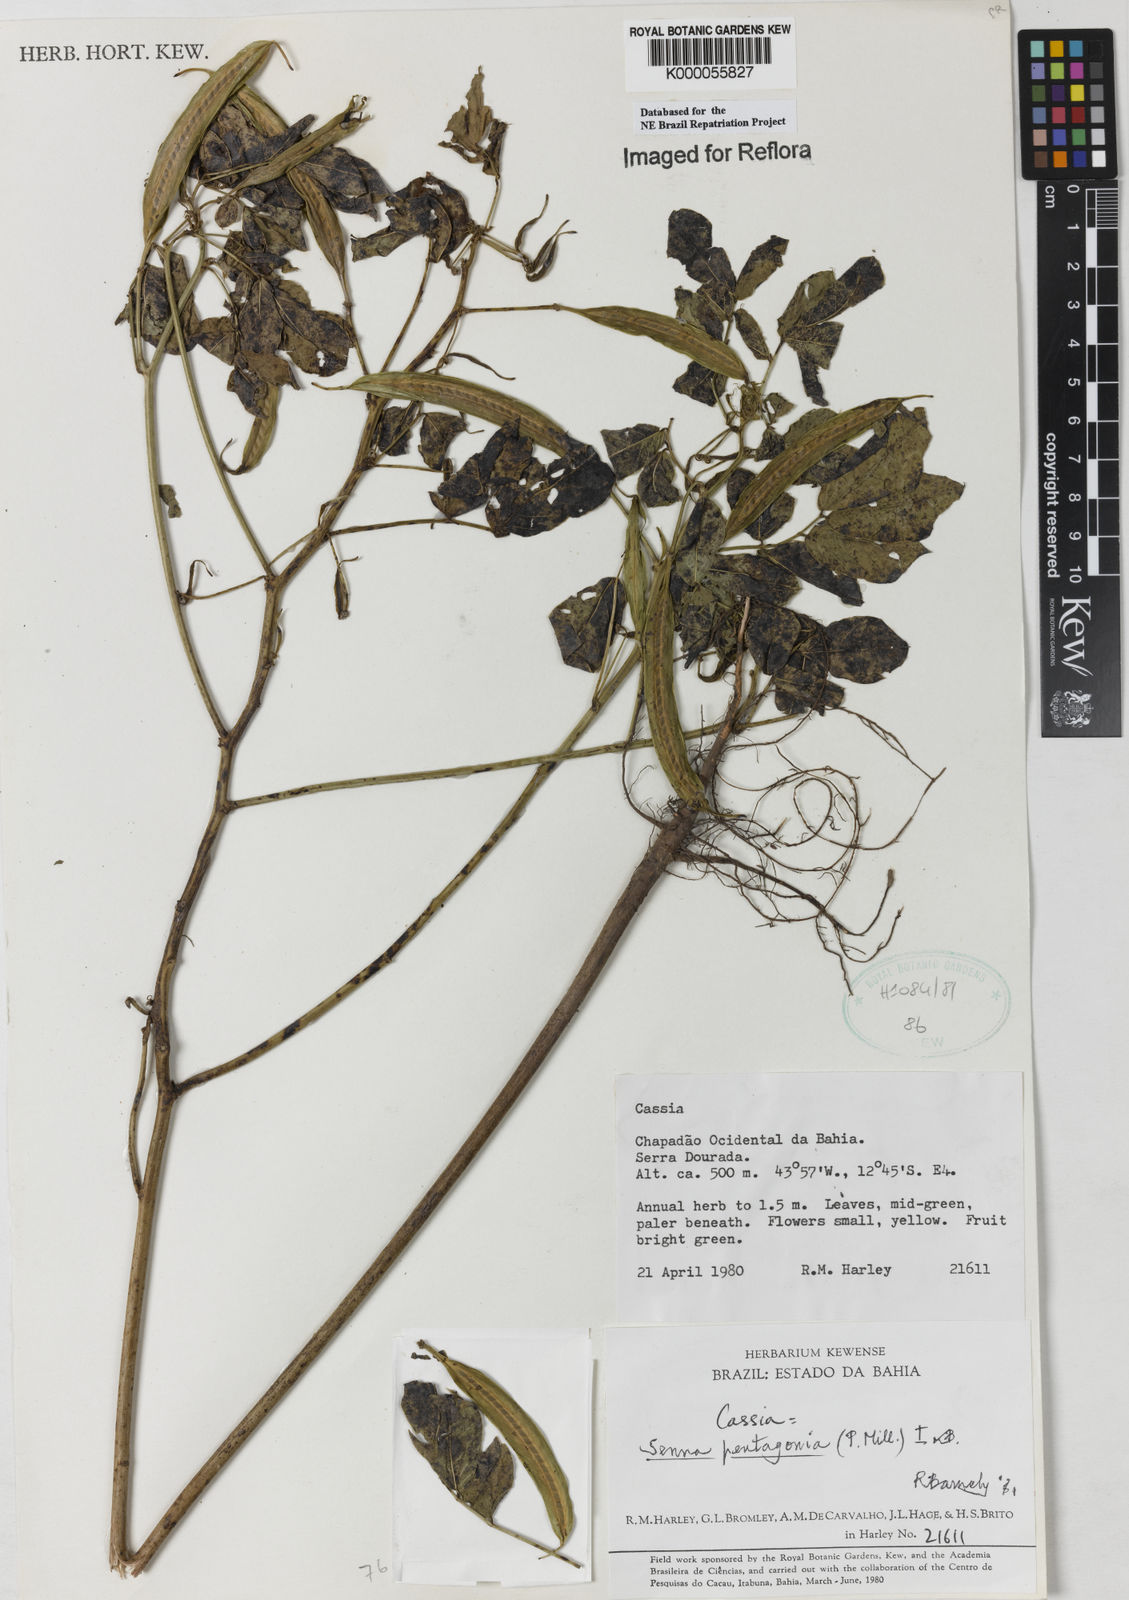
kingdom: Plantae
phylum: Tracheophyta
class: Magnoliopsida
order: Fabales
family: Fabaceae
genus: Senna
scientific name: Senna pentagonia
